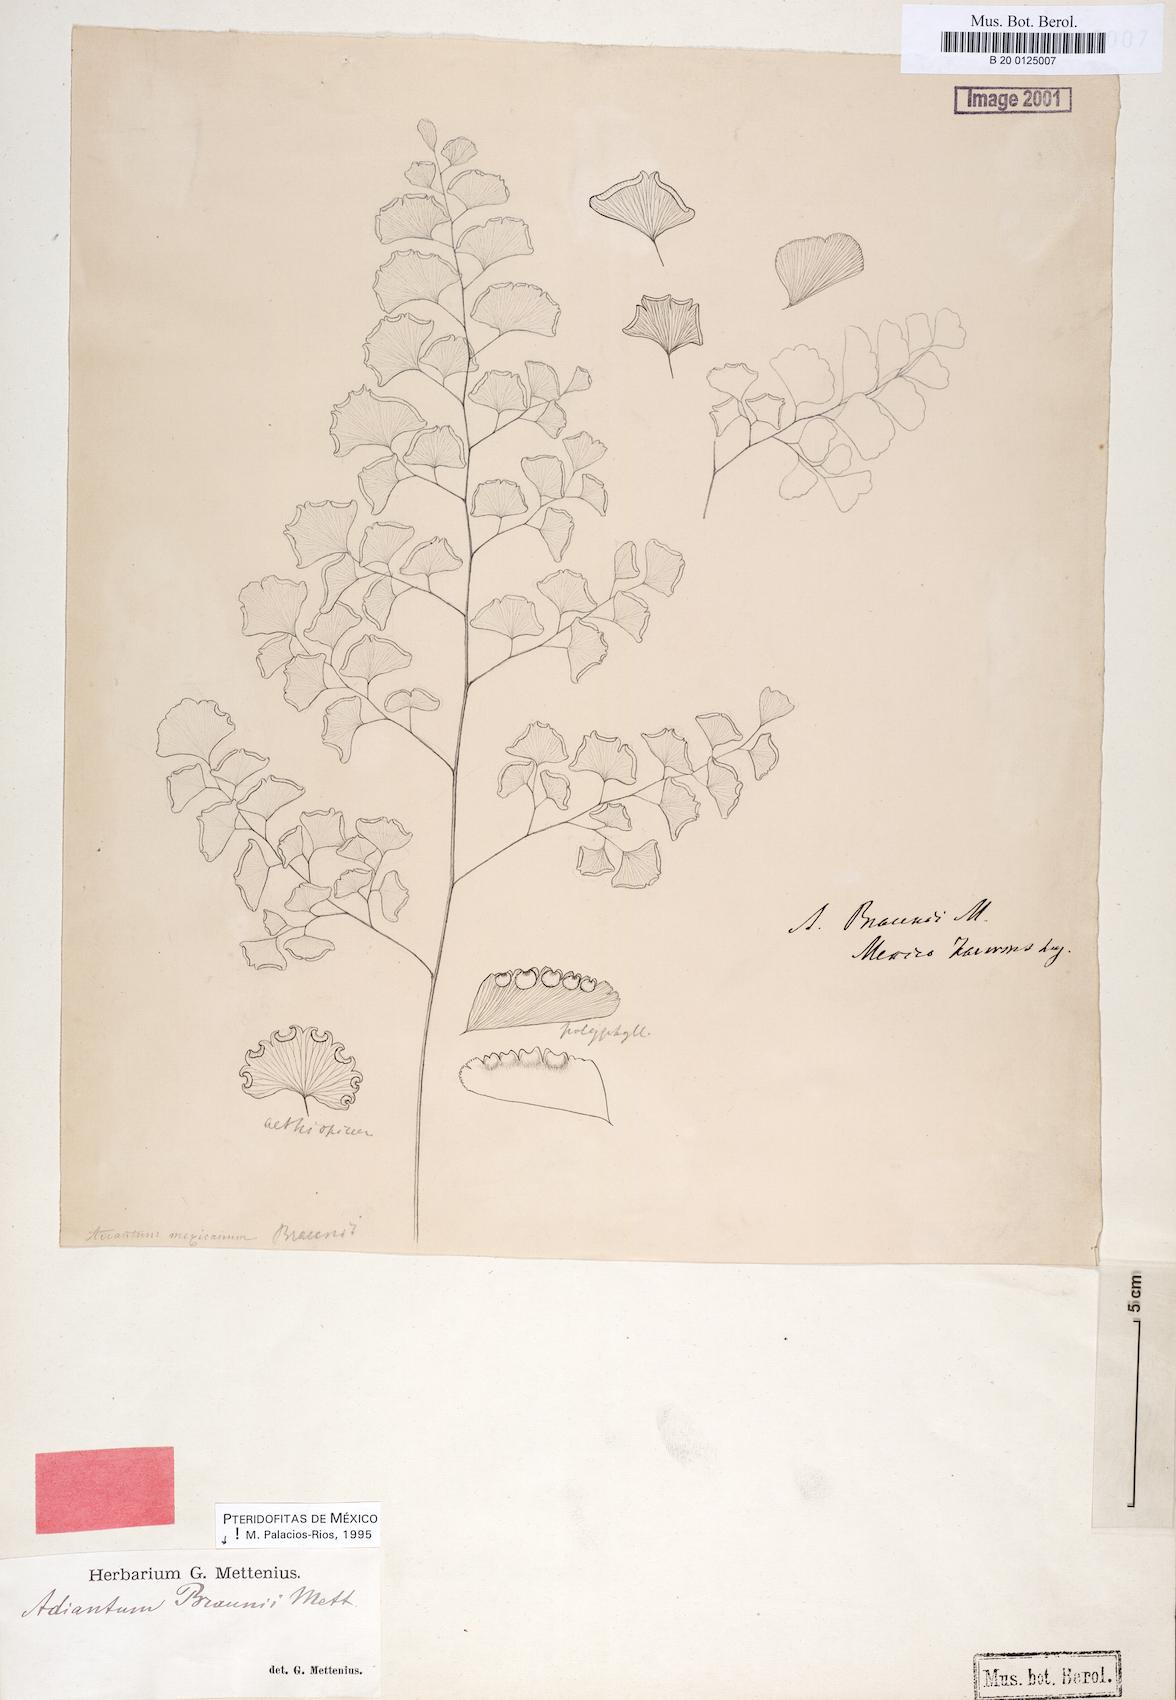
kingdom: Plantae
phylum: Tracheophyta
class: Polypodiopsida
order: Polypodiales
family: Pteridaceae
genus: Adiantum
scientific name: Adiantum braunii
